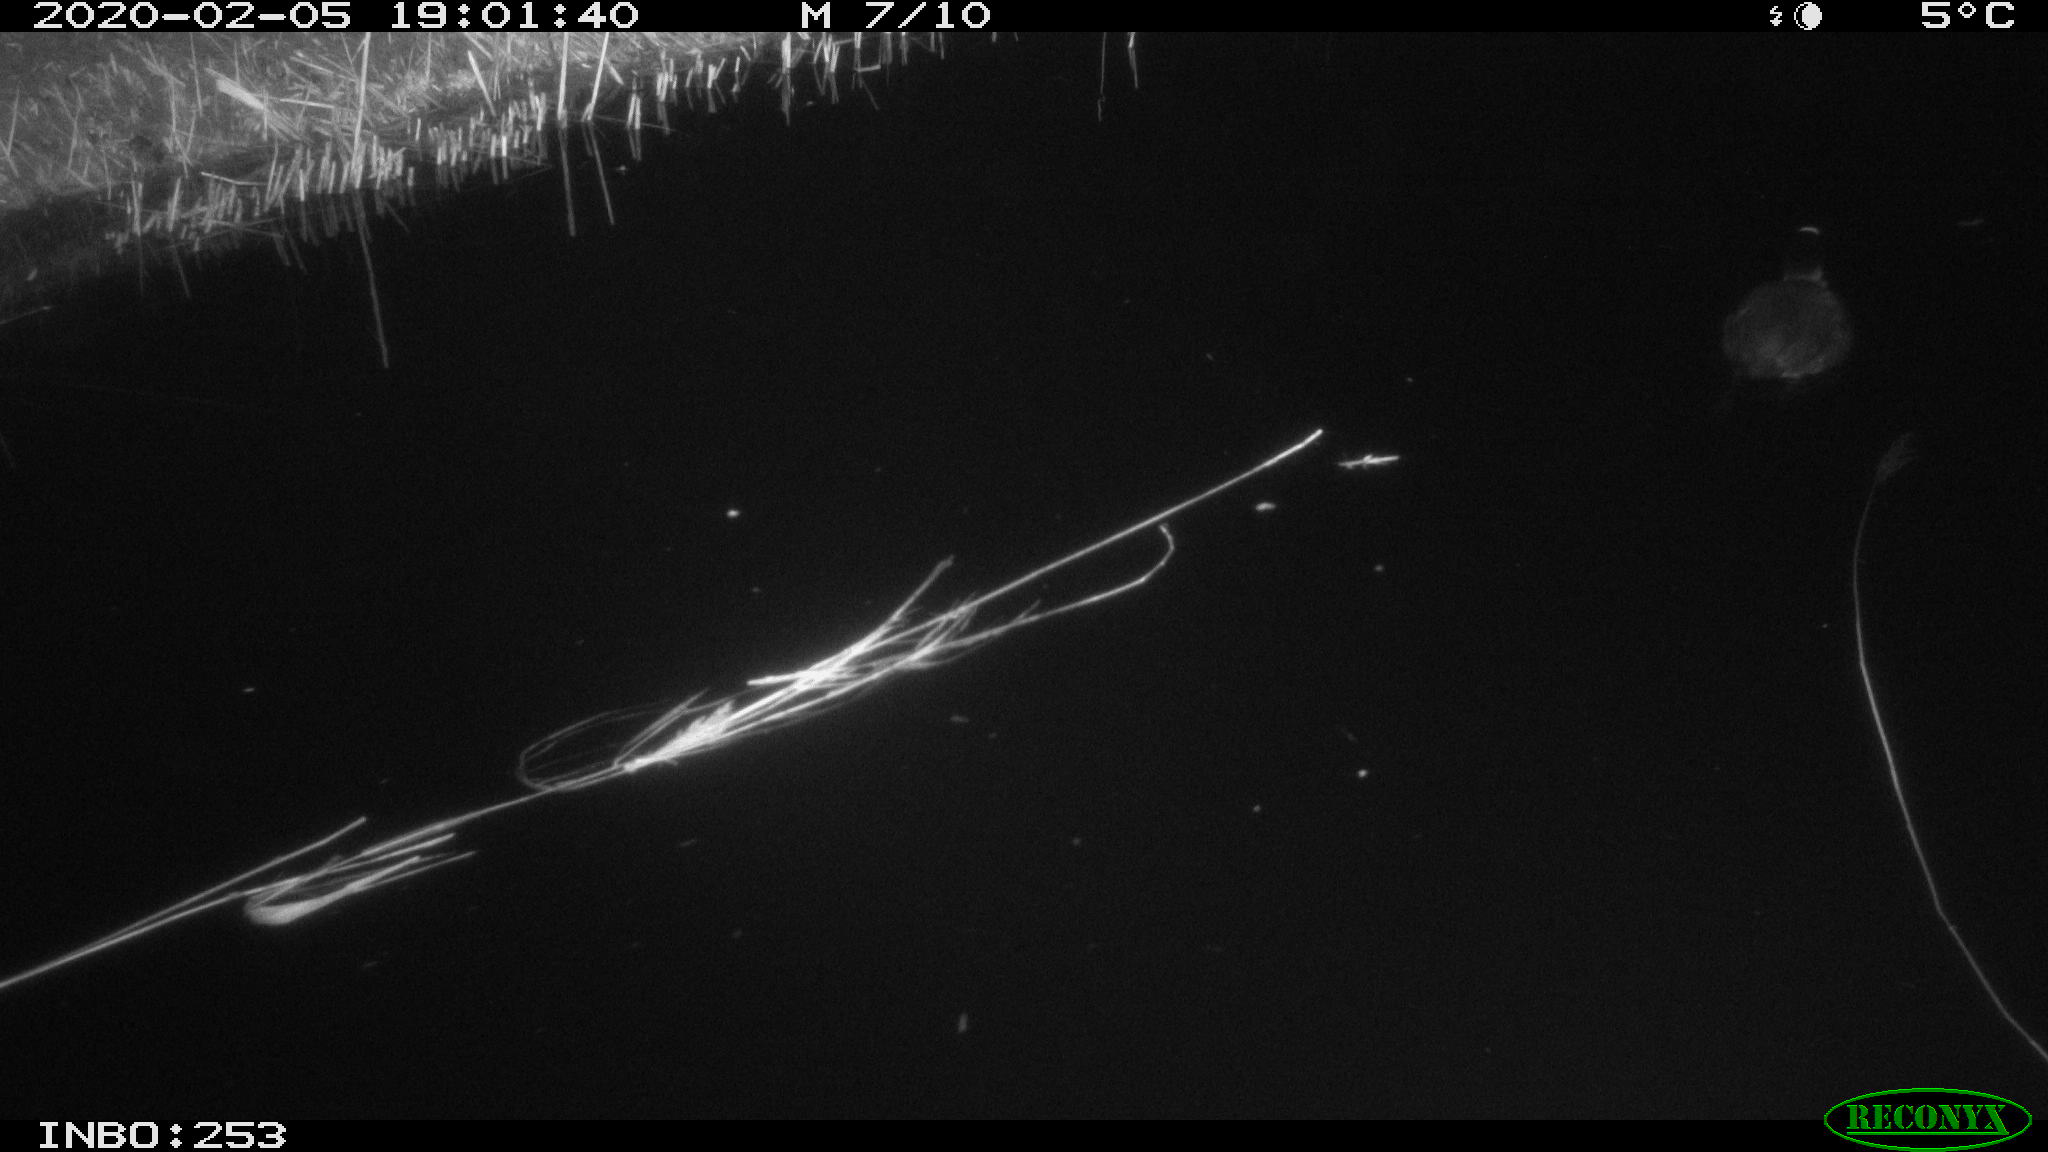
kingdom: Animalia
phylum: Chordata
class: Aves
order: Gruiformes
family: Rallidae
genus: Fulica
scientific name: Fulica atra
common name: Eurasian coot
